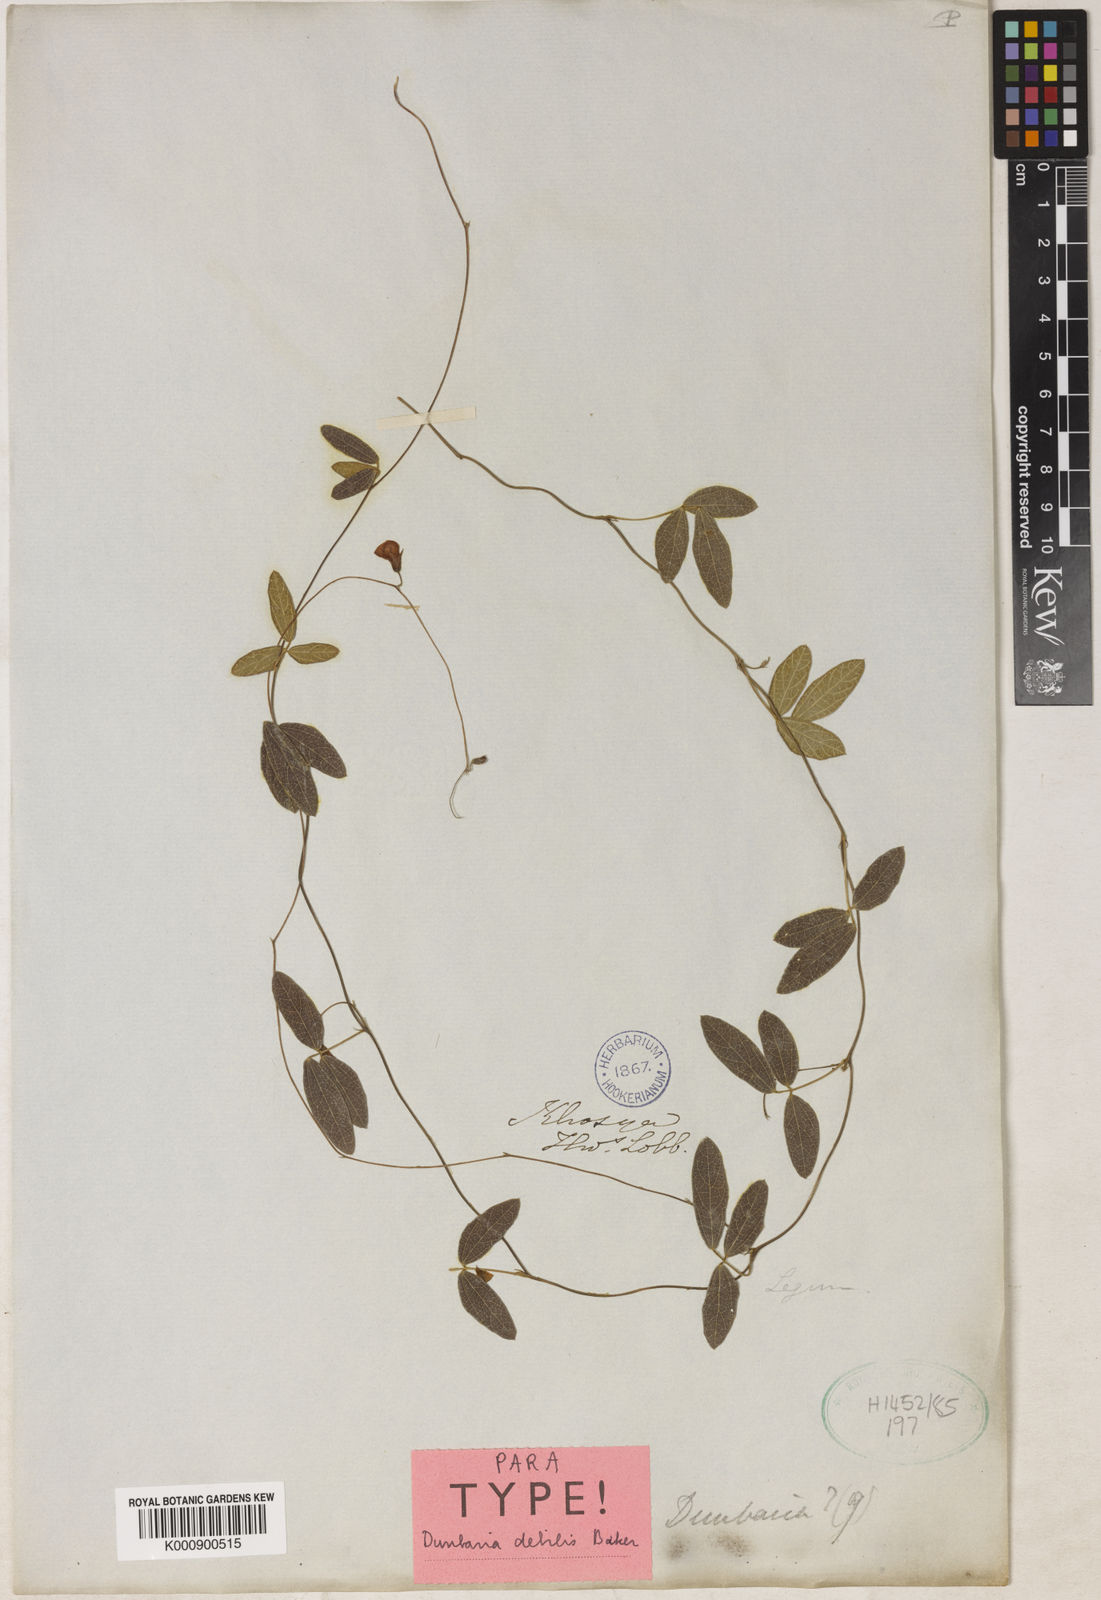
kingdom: Plantae
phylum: Tracheophyta
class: Magnoliopsida
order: Fabales
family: Fabaceae
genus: Dunbaria
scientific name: Dunbaria debilis
